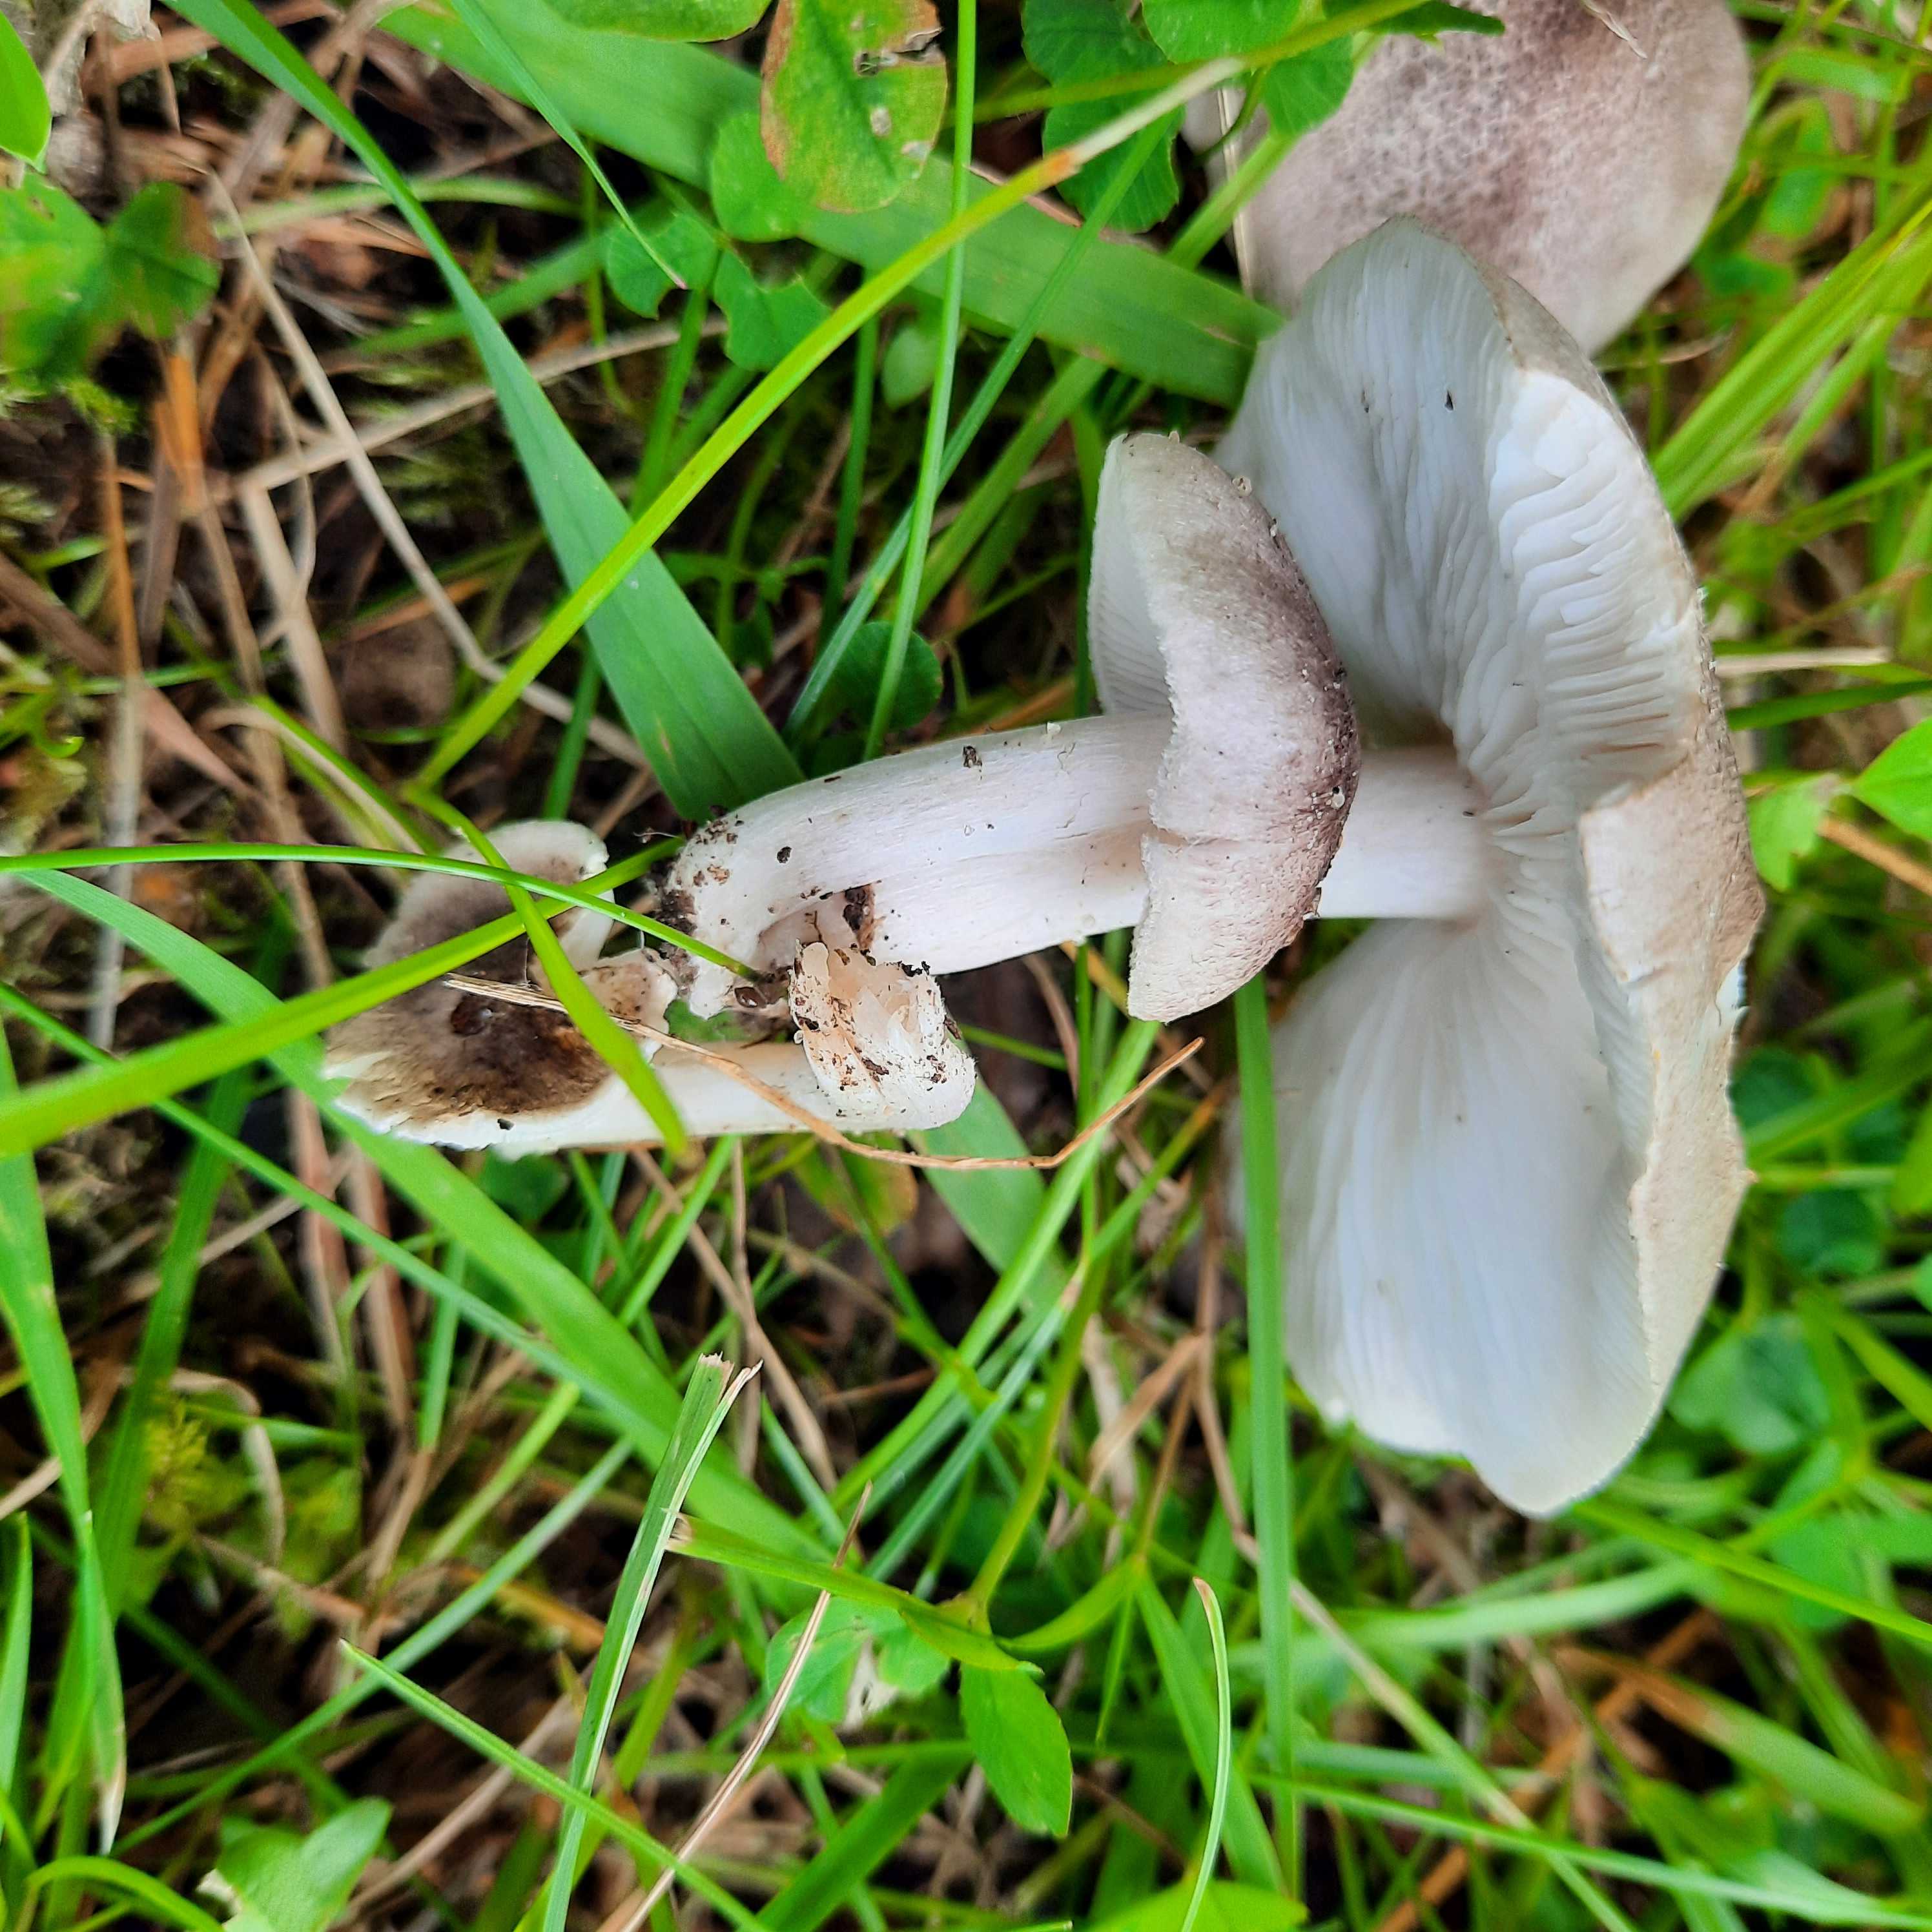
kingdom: Fungi
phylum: Basidiomycota
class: Agaricomycetes
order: Agaricales
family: Tricholomataceae
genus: Tricholoma
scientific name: Tricholoma scalpturatum
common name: gulplettet ridderhat
